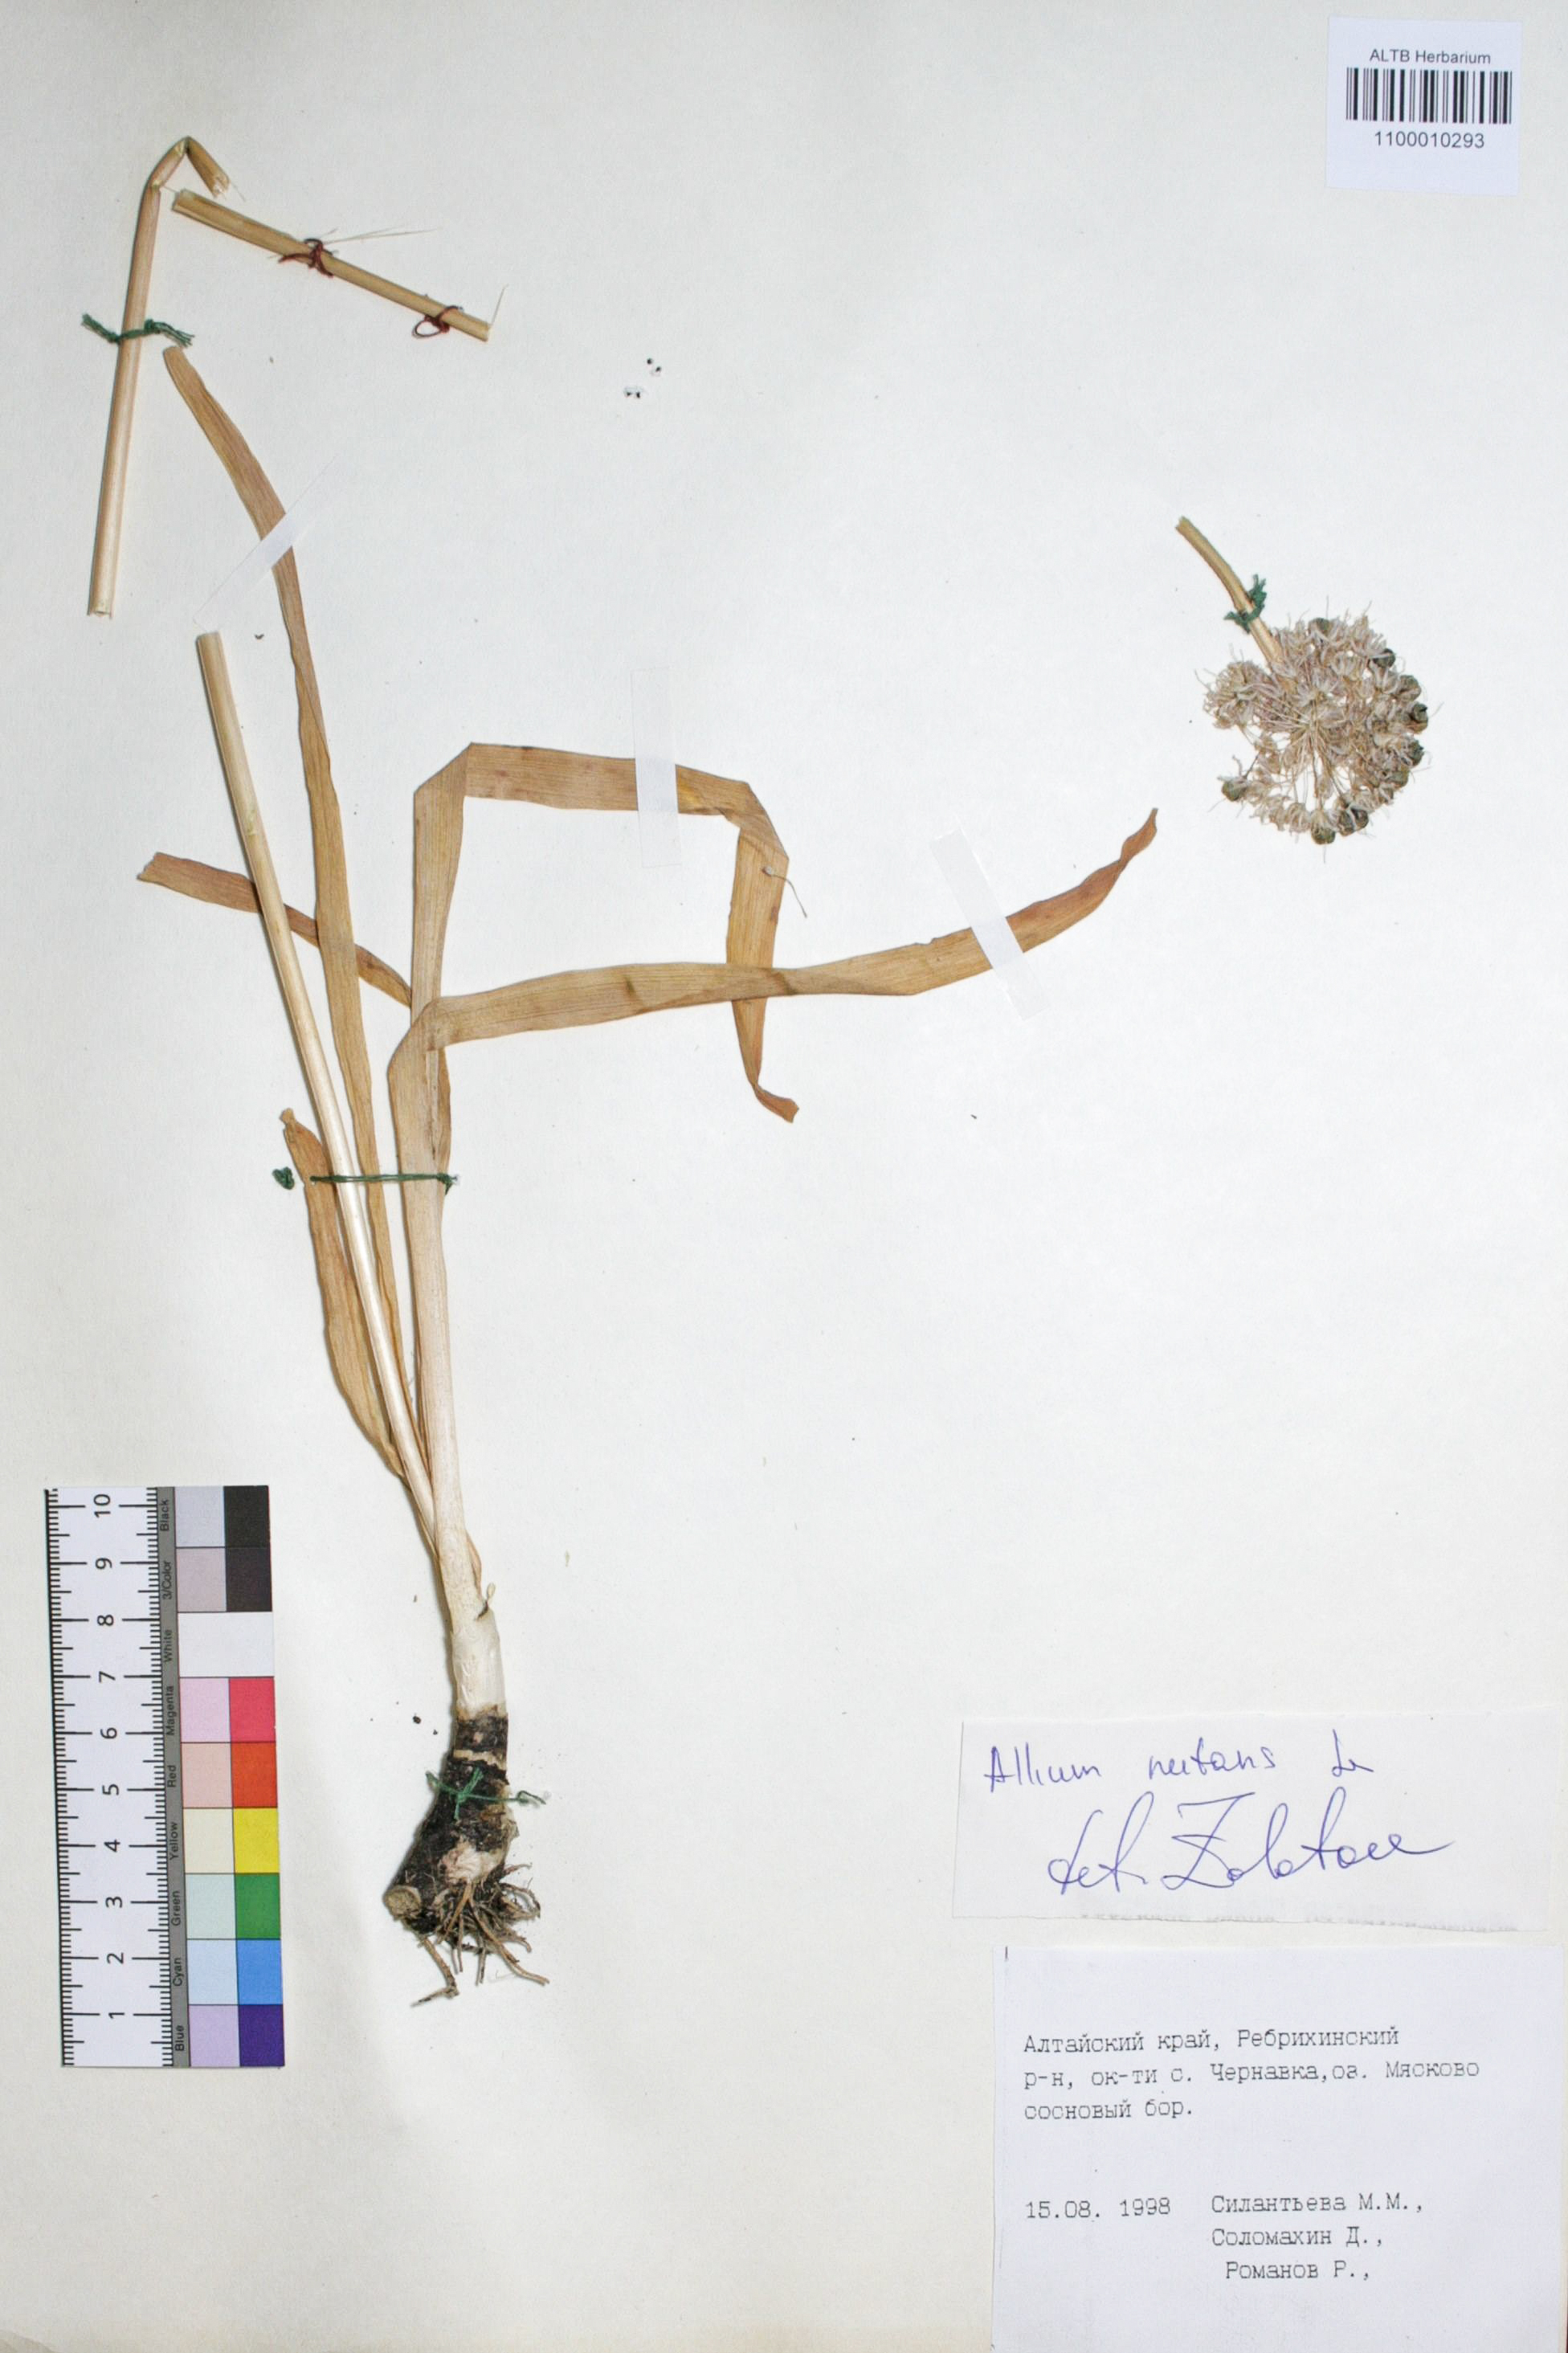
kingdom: Plantae
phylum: Tracheophyta
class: Liliopsida
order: Asparagales
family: Amaryllidaceae
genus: Allium
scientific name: Allium nutans
